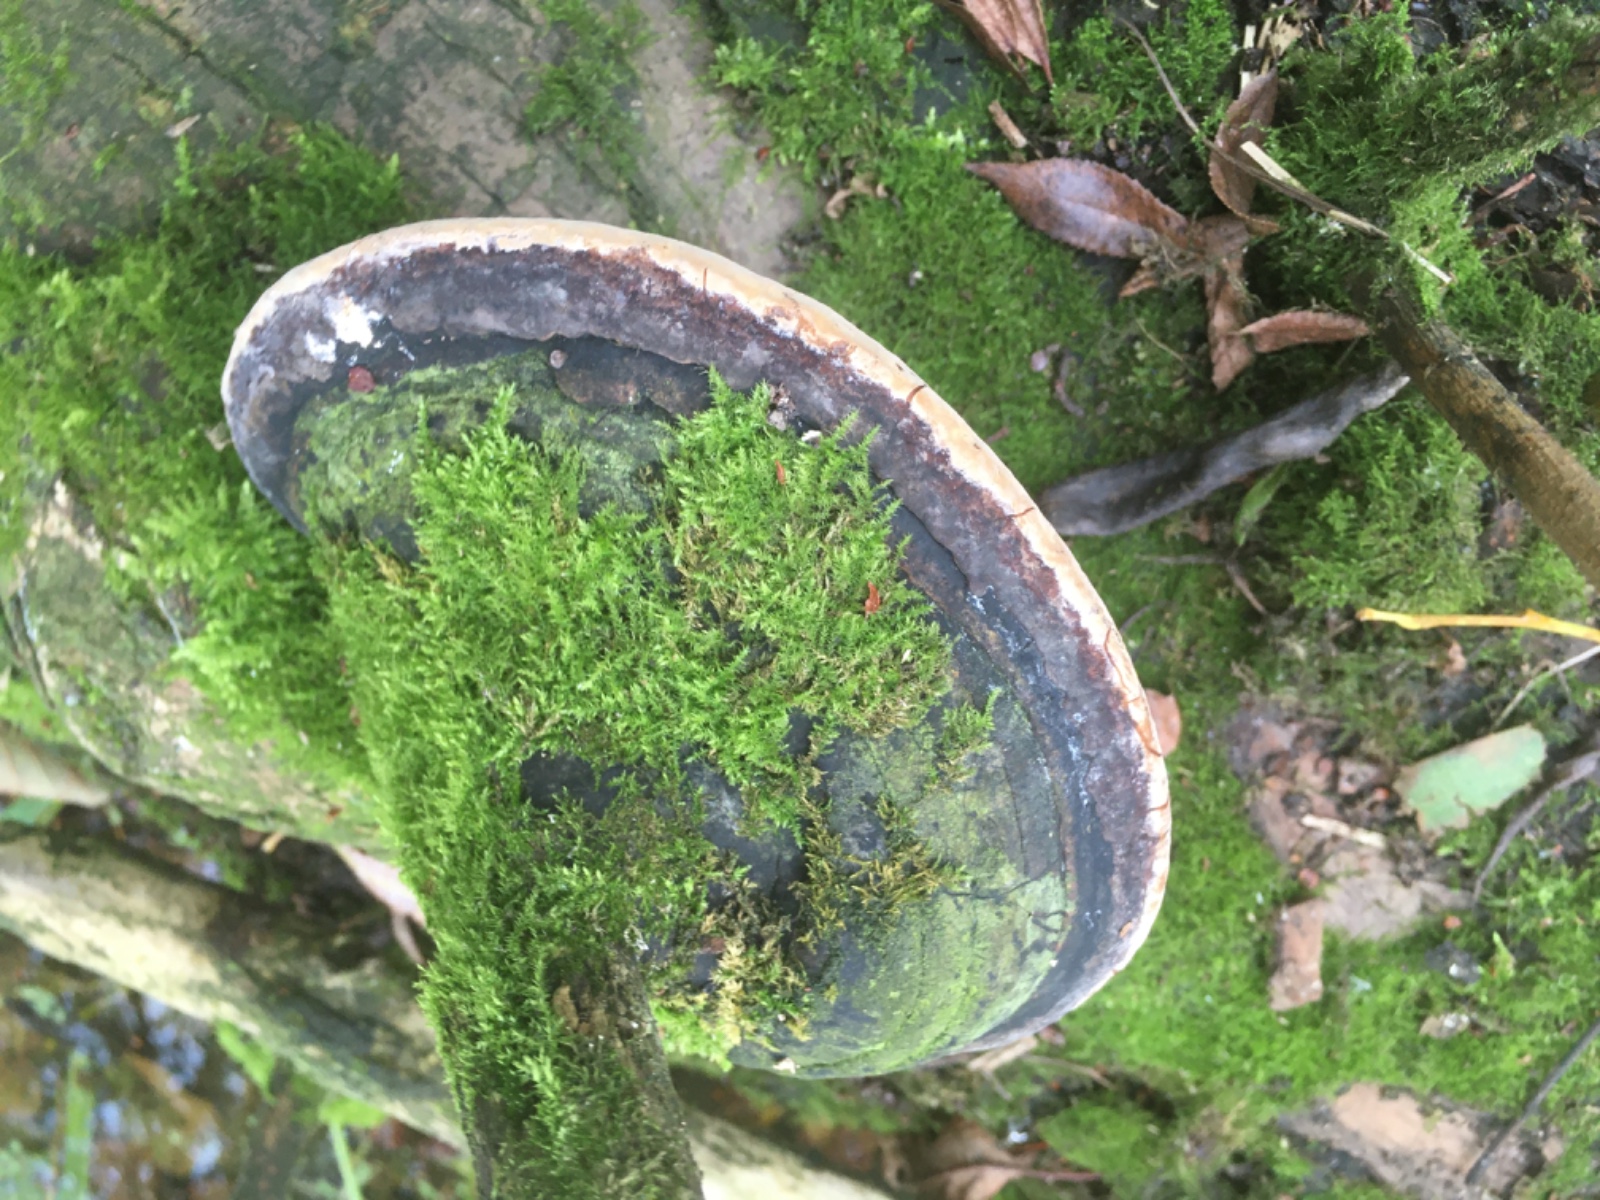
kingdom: Fungi
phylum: Basidiomycota
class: Agaricomycetes
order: Hymenochaetales
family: Hymenochaetaceae
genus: Phellinus
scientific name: Phellinus igniarius
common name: almindelig ildporesvamp
